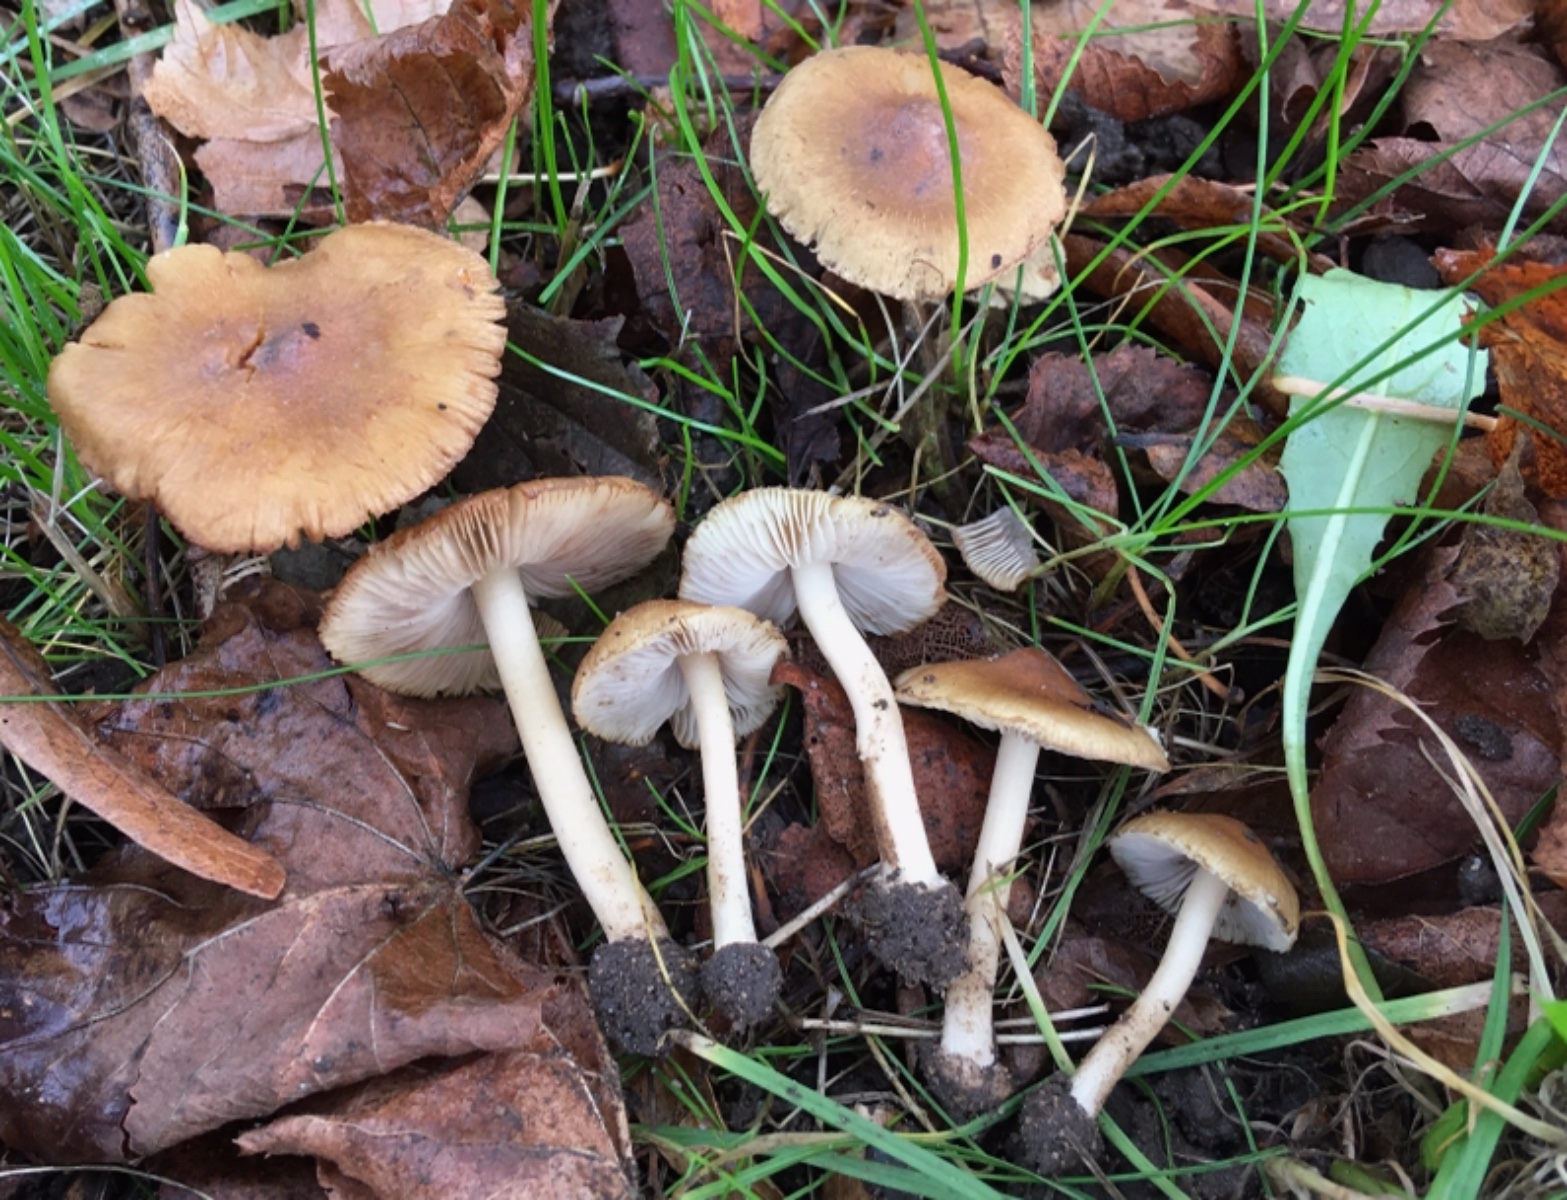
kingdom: Fungi
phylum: Basidiomycota
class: Agaricomycetes
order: Agaricales
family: Inocybaceae
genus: Inocybe
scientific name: Inocybe
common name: trævlhat
